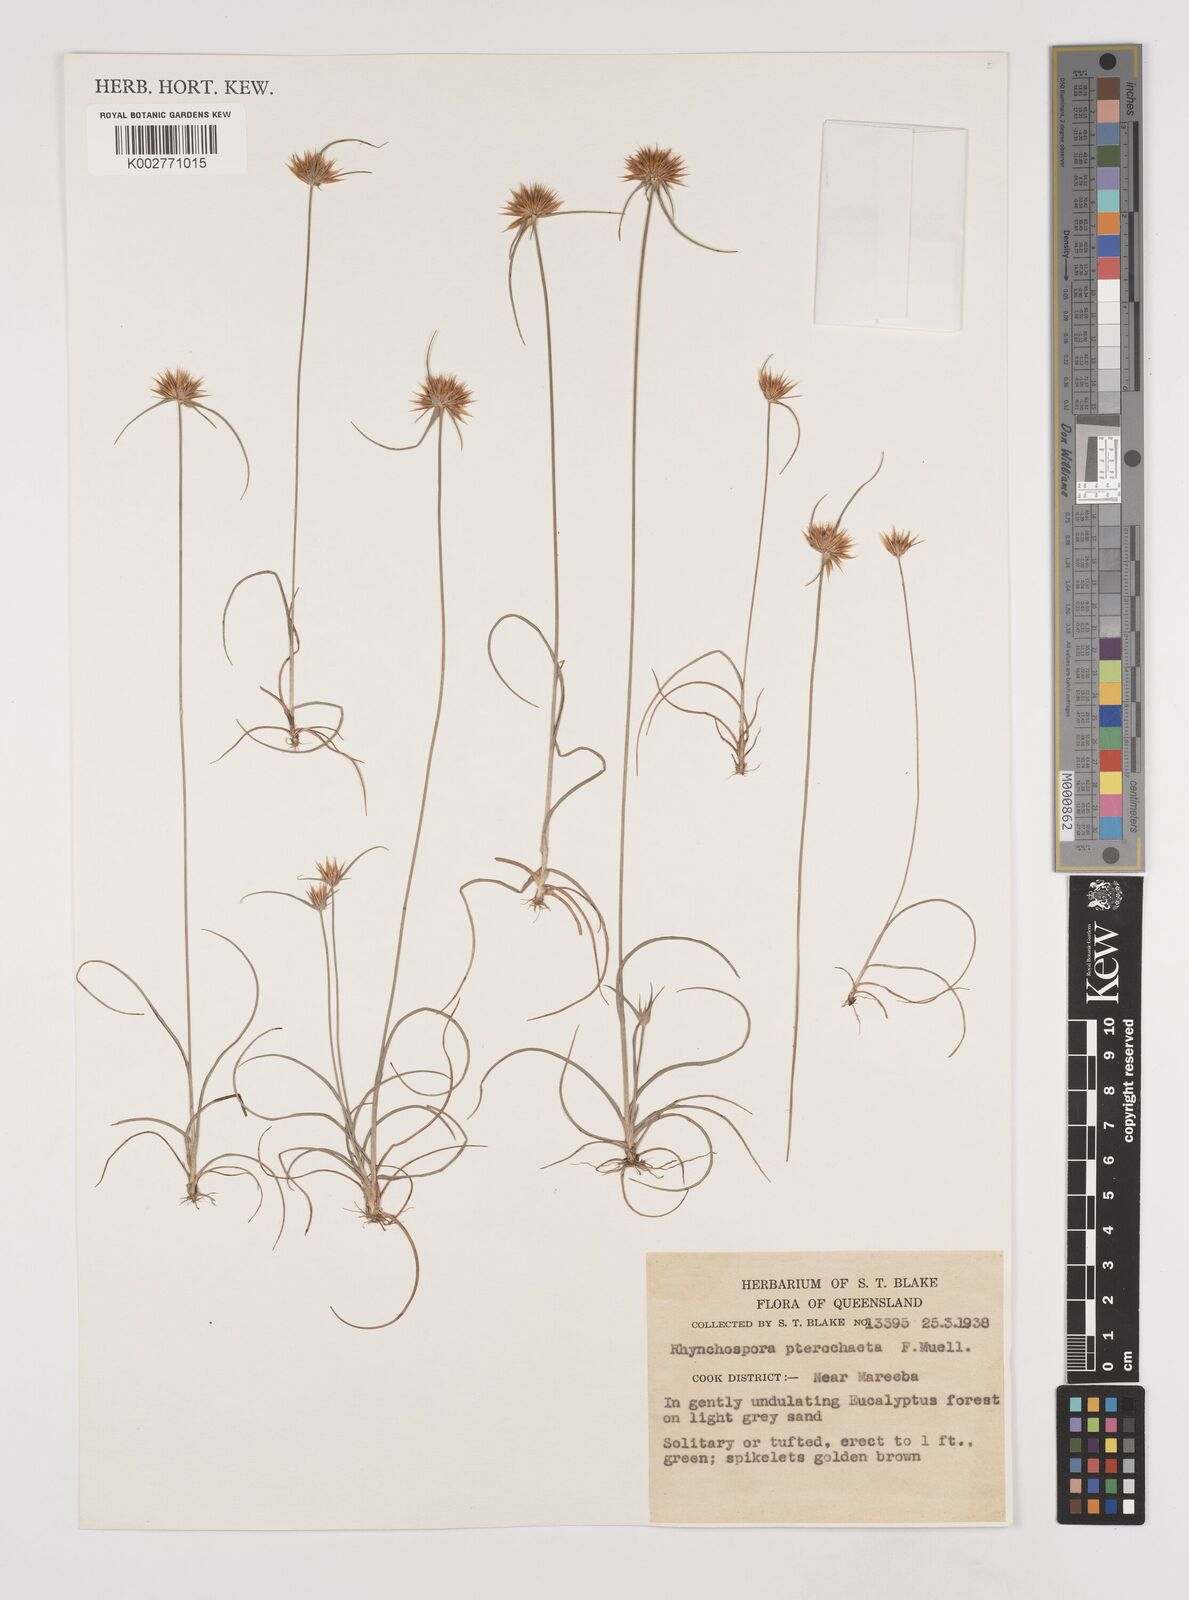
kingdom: Plantae
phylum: Tracheophyta
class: Liliopsida
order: Poales
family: Cyperaceae
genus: Rhynchospora
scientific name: Rhynchospora pterochaeta
